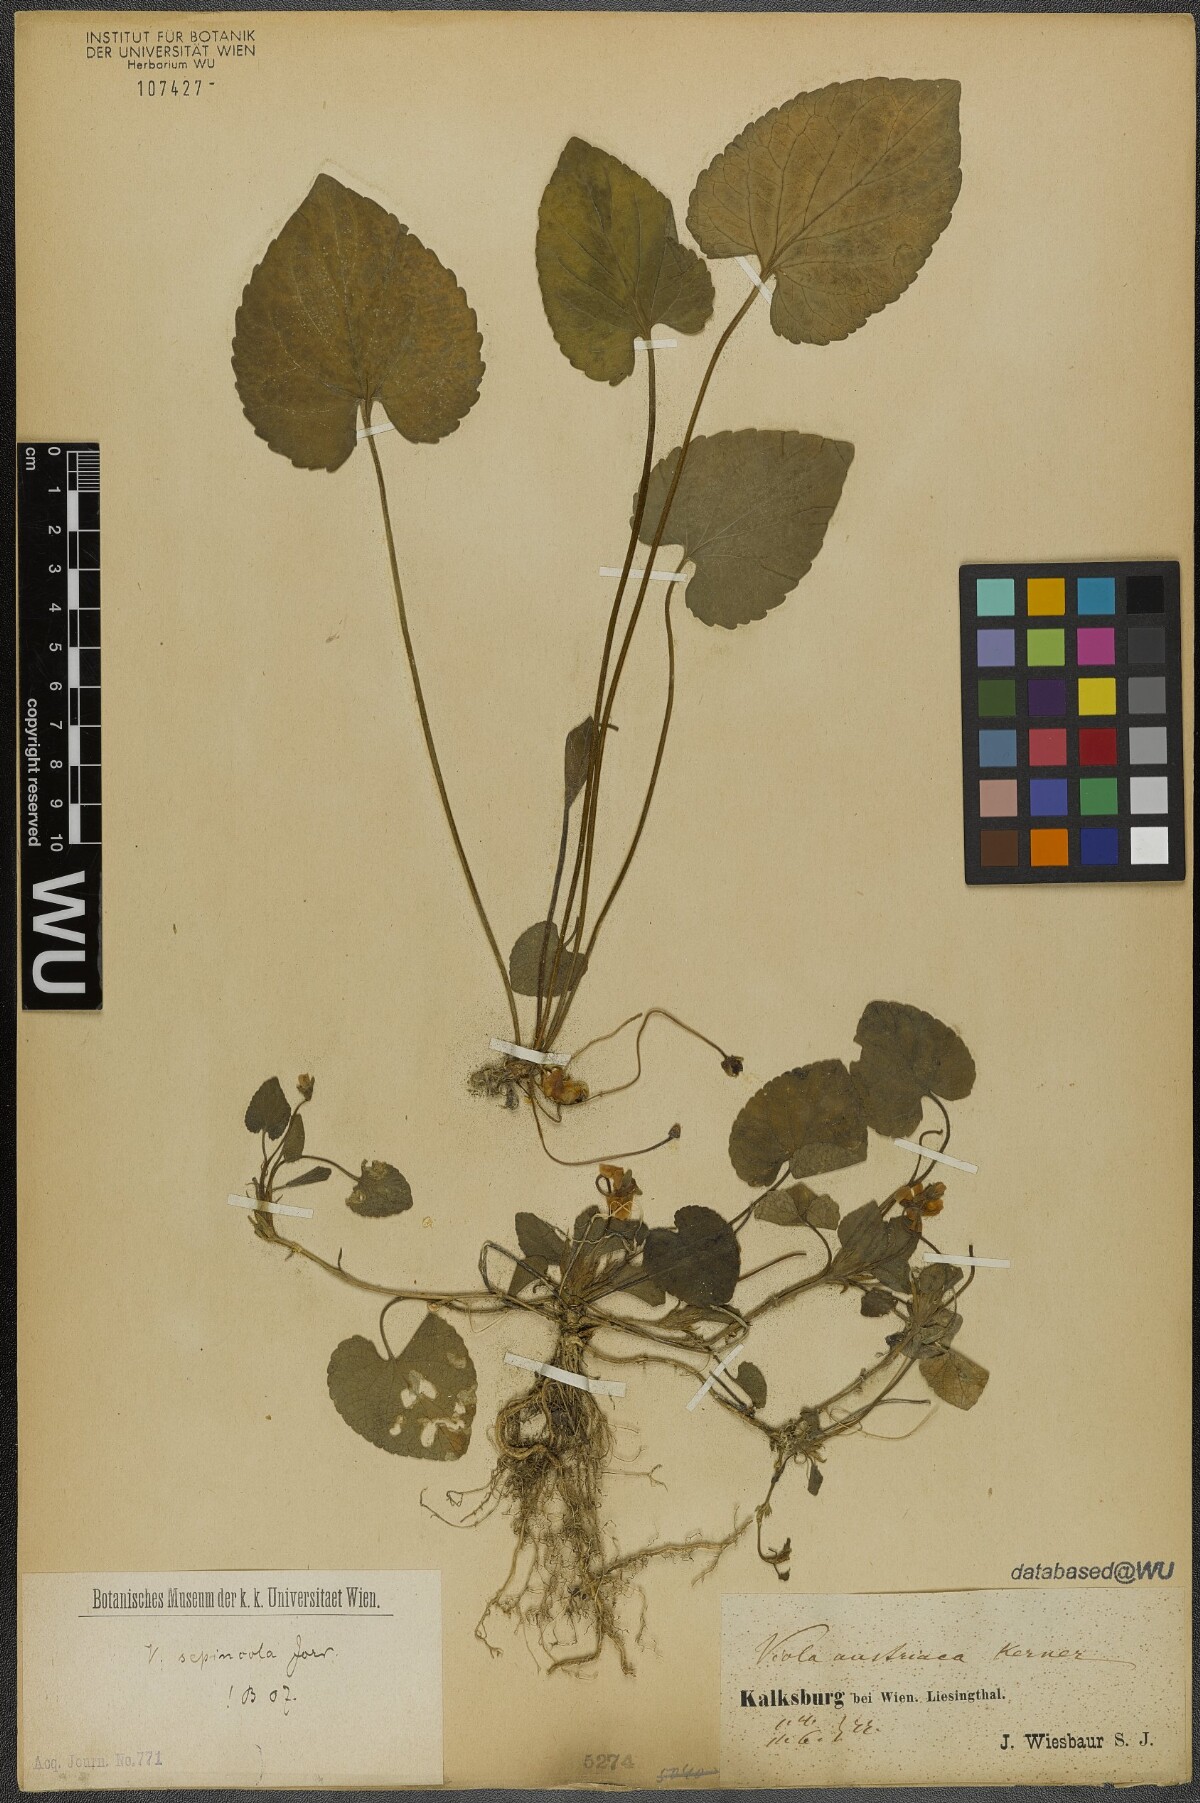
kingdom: Plantae
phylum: Tracheophyta
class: Magnoliopsida
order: Malpighiales
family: Violaceae
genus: Viola
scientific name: Viola suavis
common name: Russian violet
